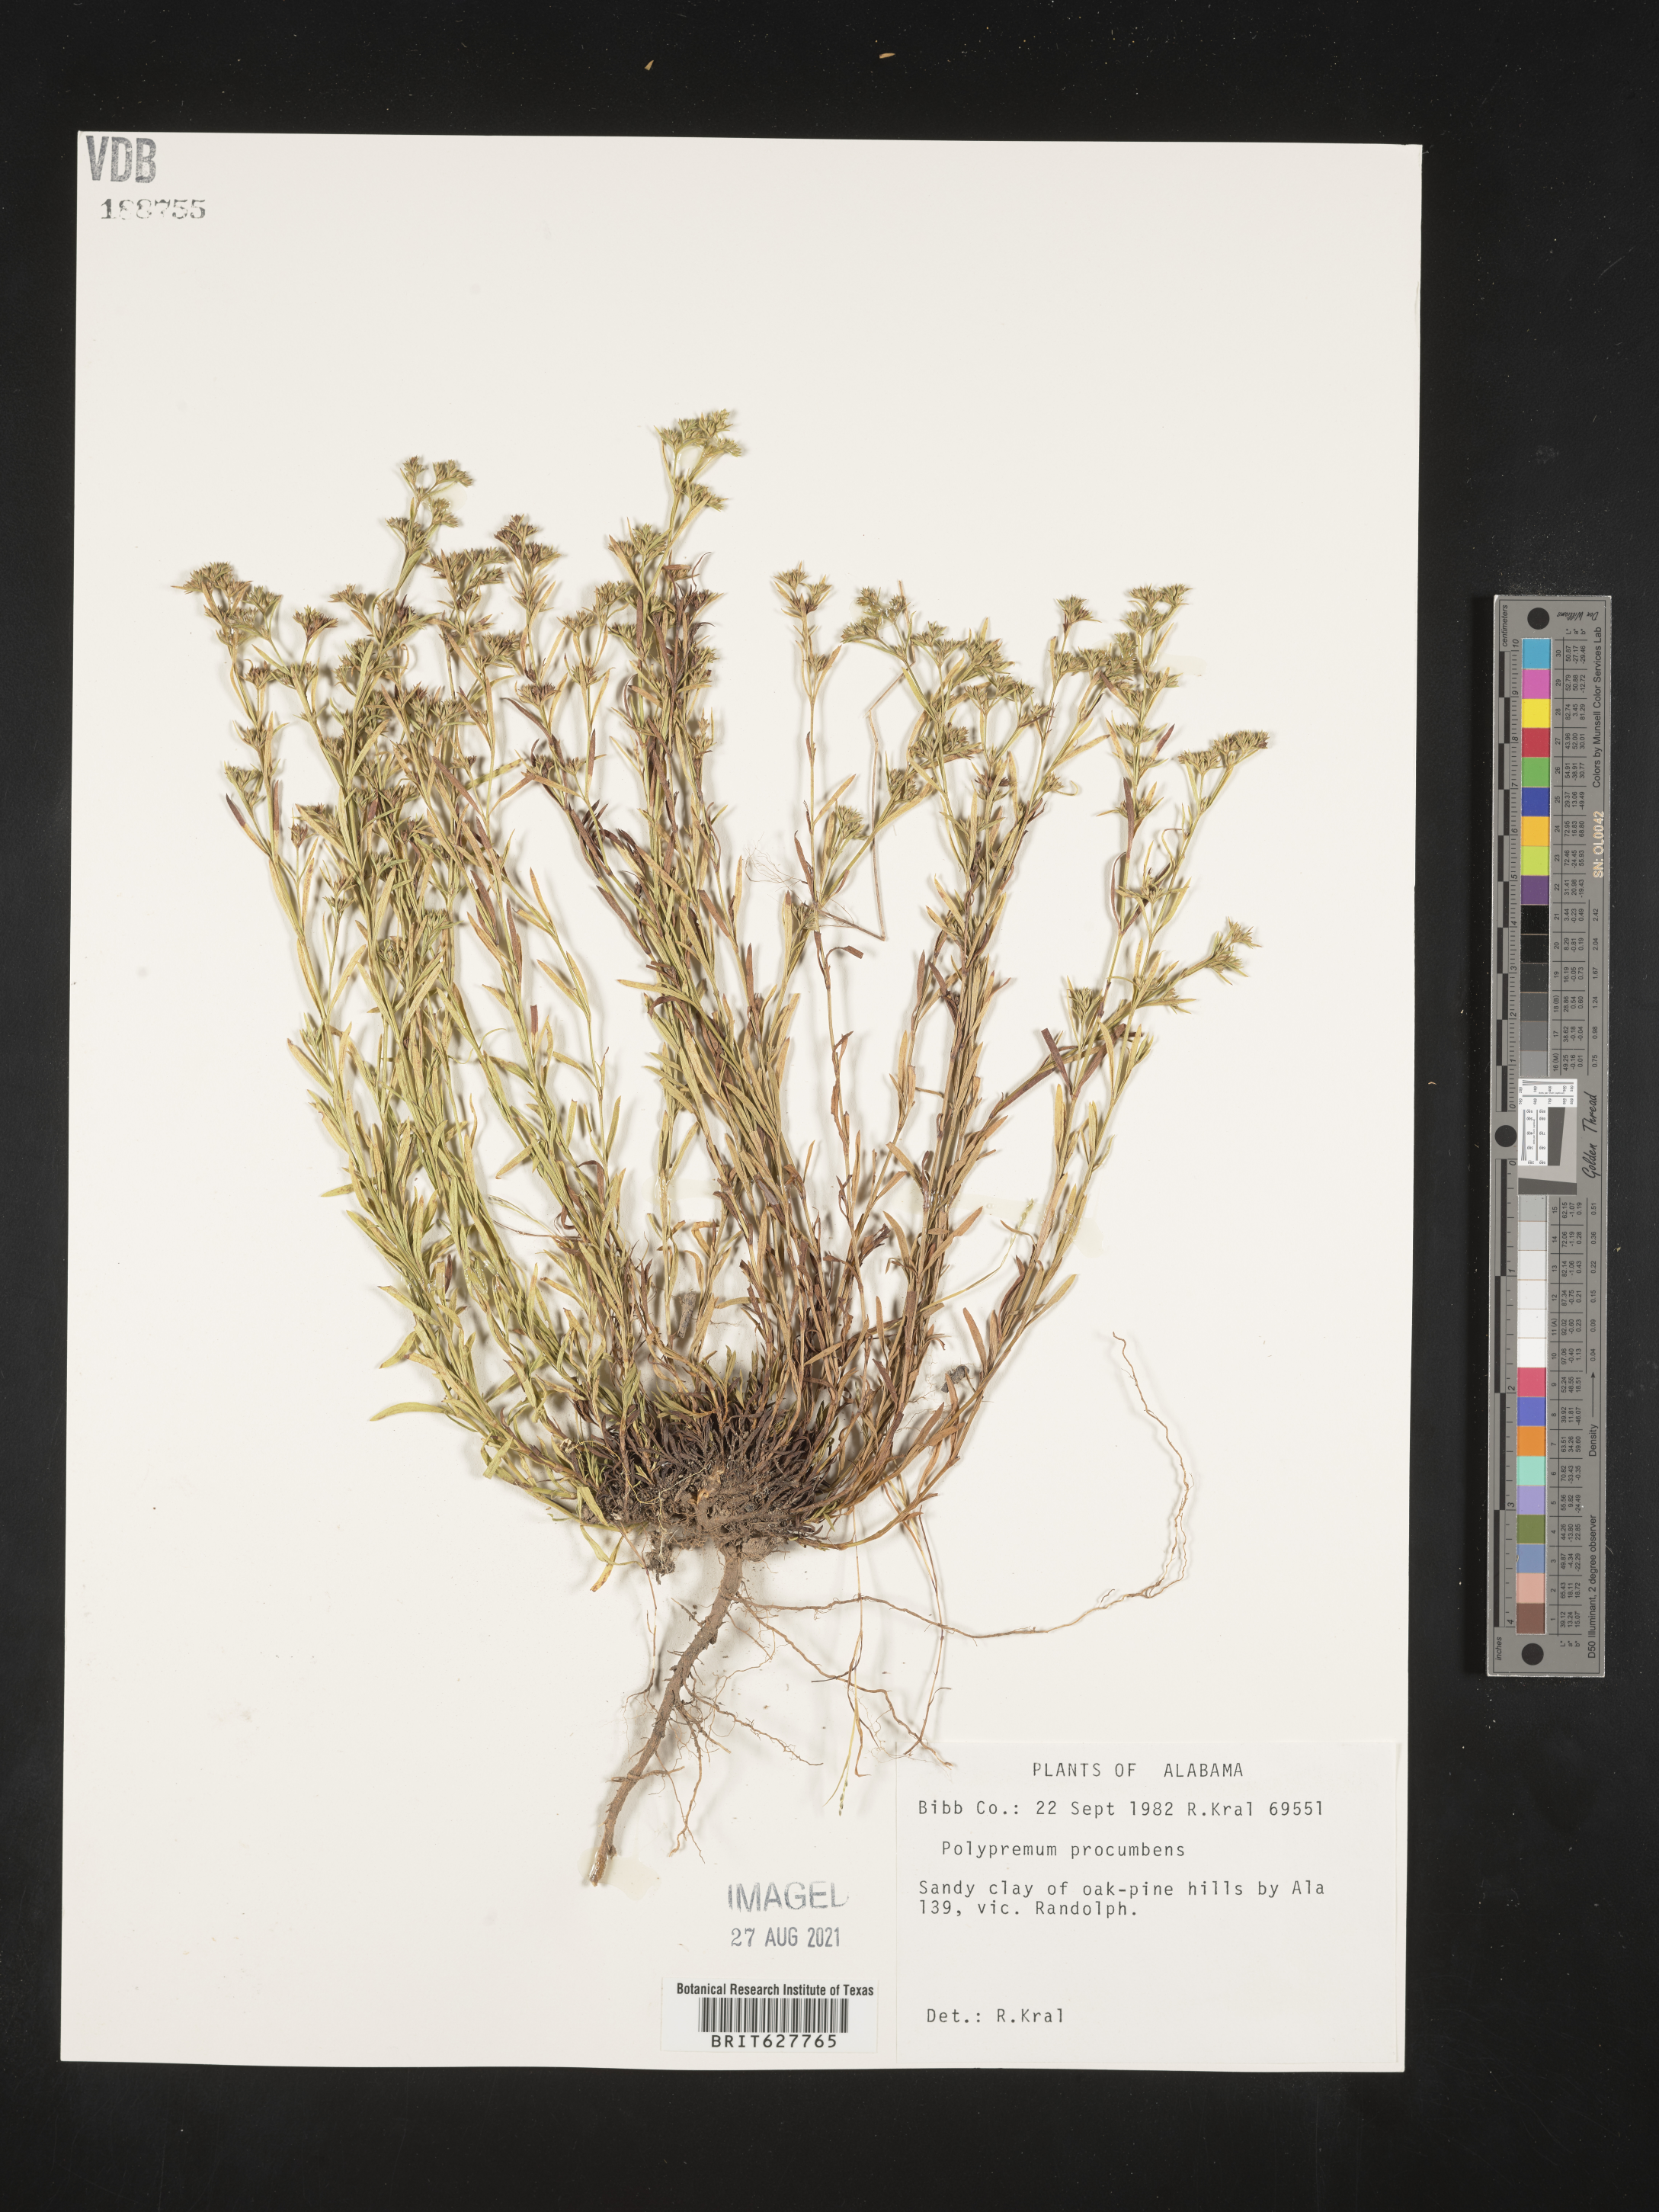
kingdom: Plantae
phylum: Tracheophyta
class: Magnoliopsida
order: Lamiales
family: Tetrachondraceae
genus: Polypremum
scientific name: Polypremum procumbens
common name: Juniper-leaf
